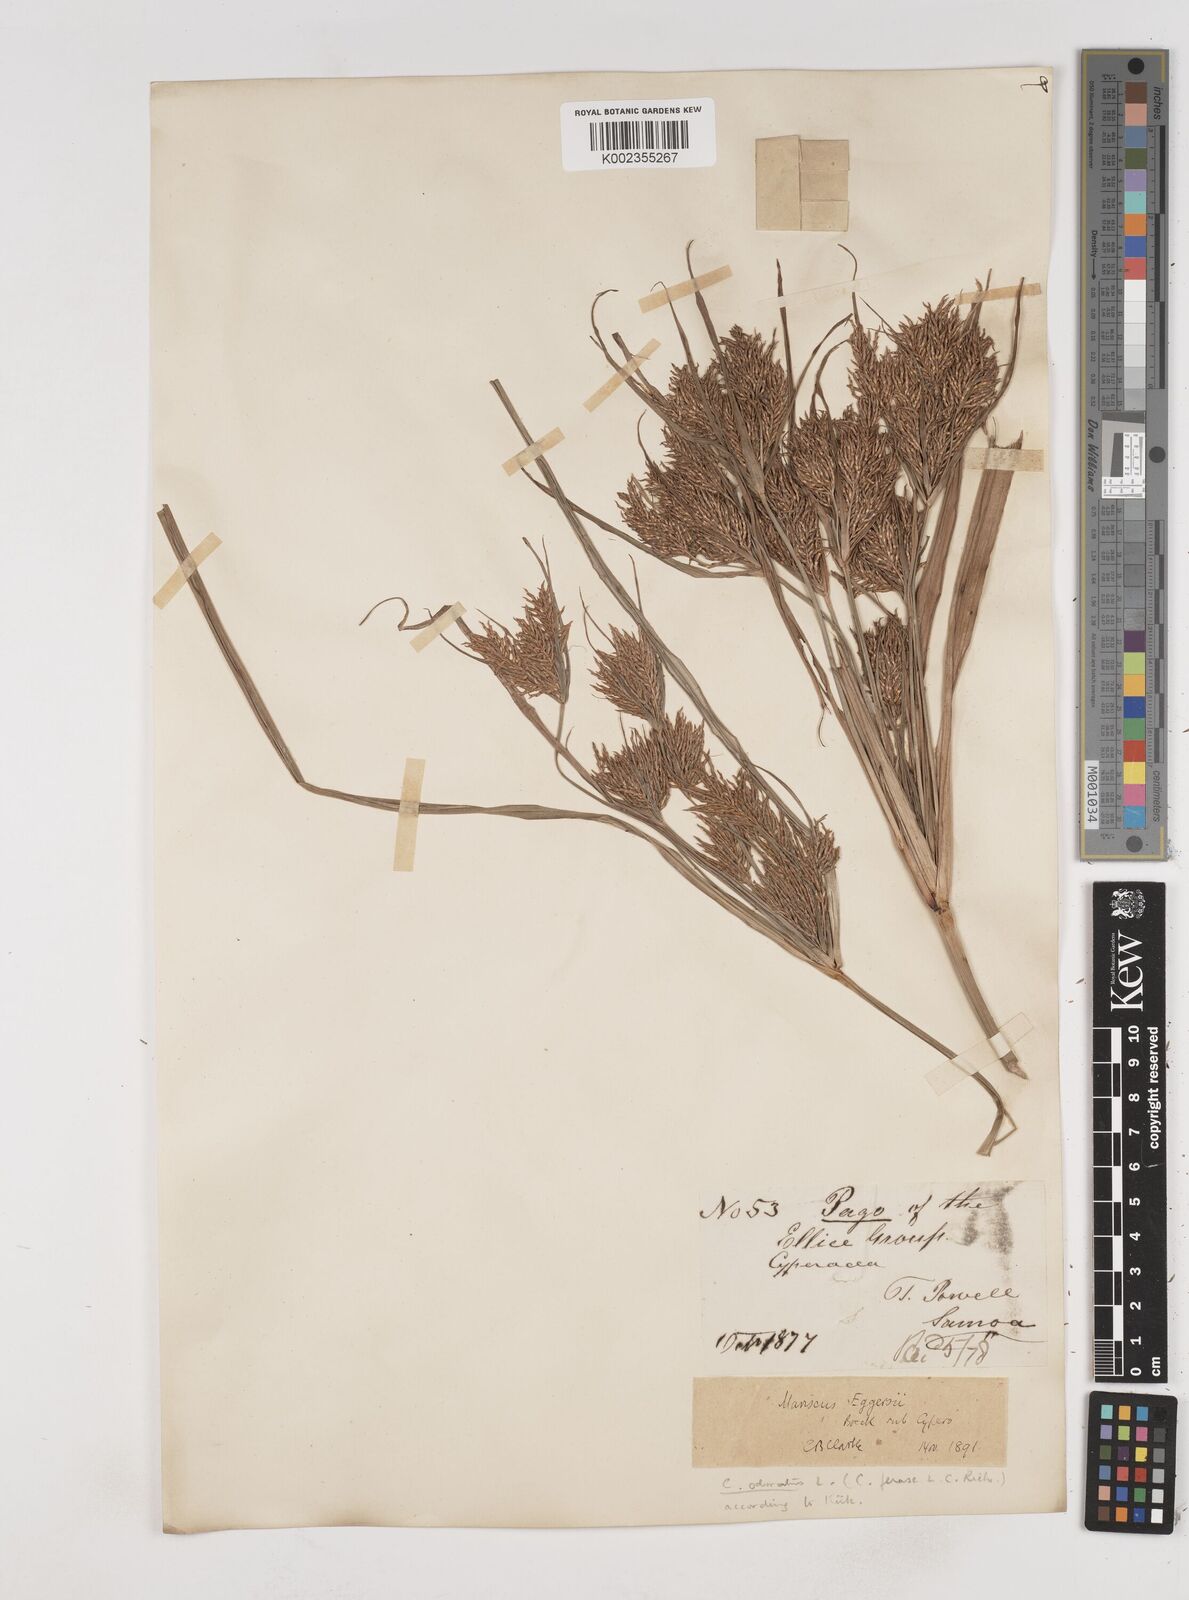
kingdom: Plantae
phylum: Tracheophyta
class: Liliopsida
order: Poales
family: Cyperaceae
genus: Cyperus
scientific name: Cyperus odoratus
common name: Fragrant flatsedge
